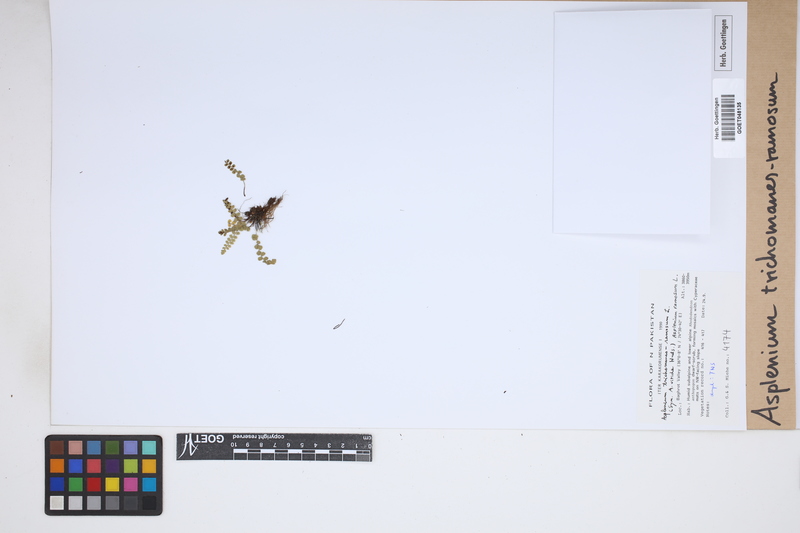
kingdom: Plantae
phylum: Tracheophyta
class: Polypodiopsida
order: Polypodiales
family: Aspleniaceae
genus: Asplenium
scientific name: Asplenium viride
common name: Green spleenwort
